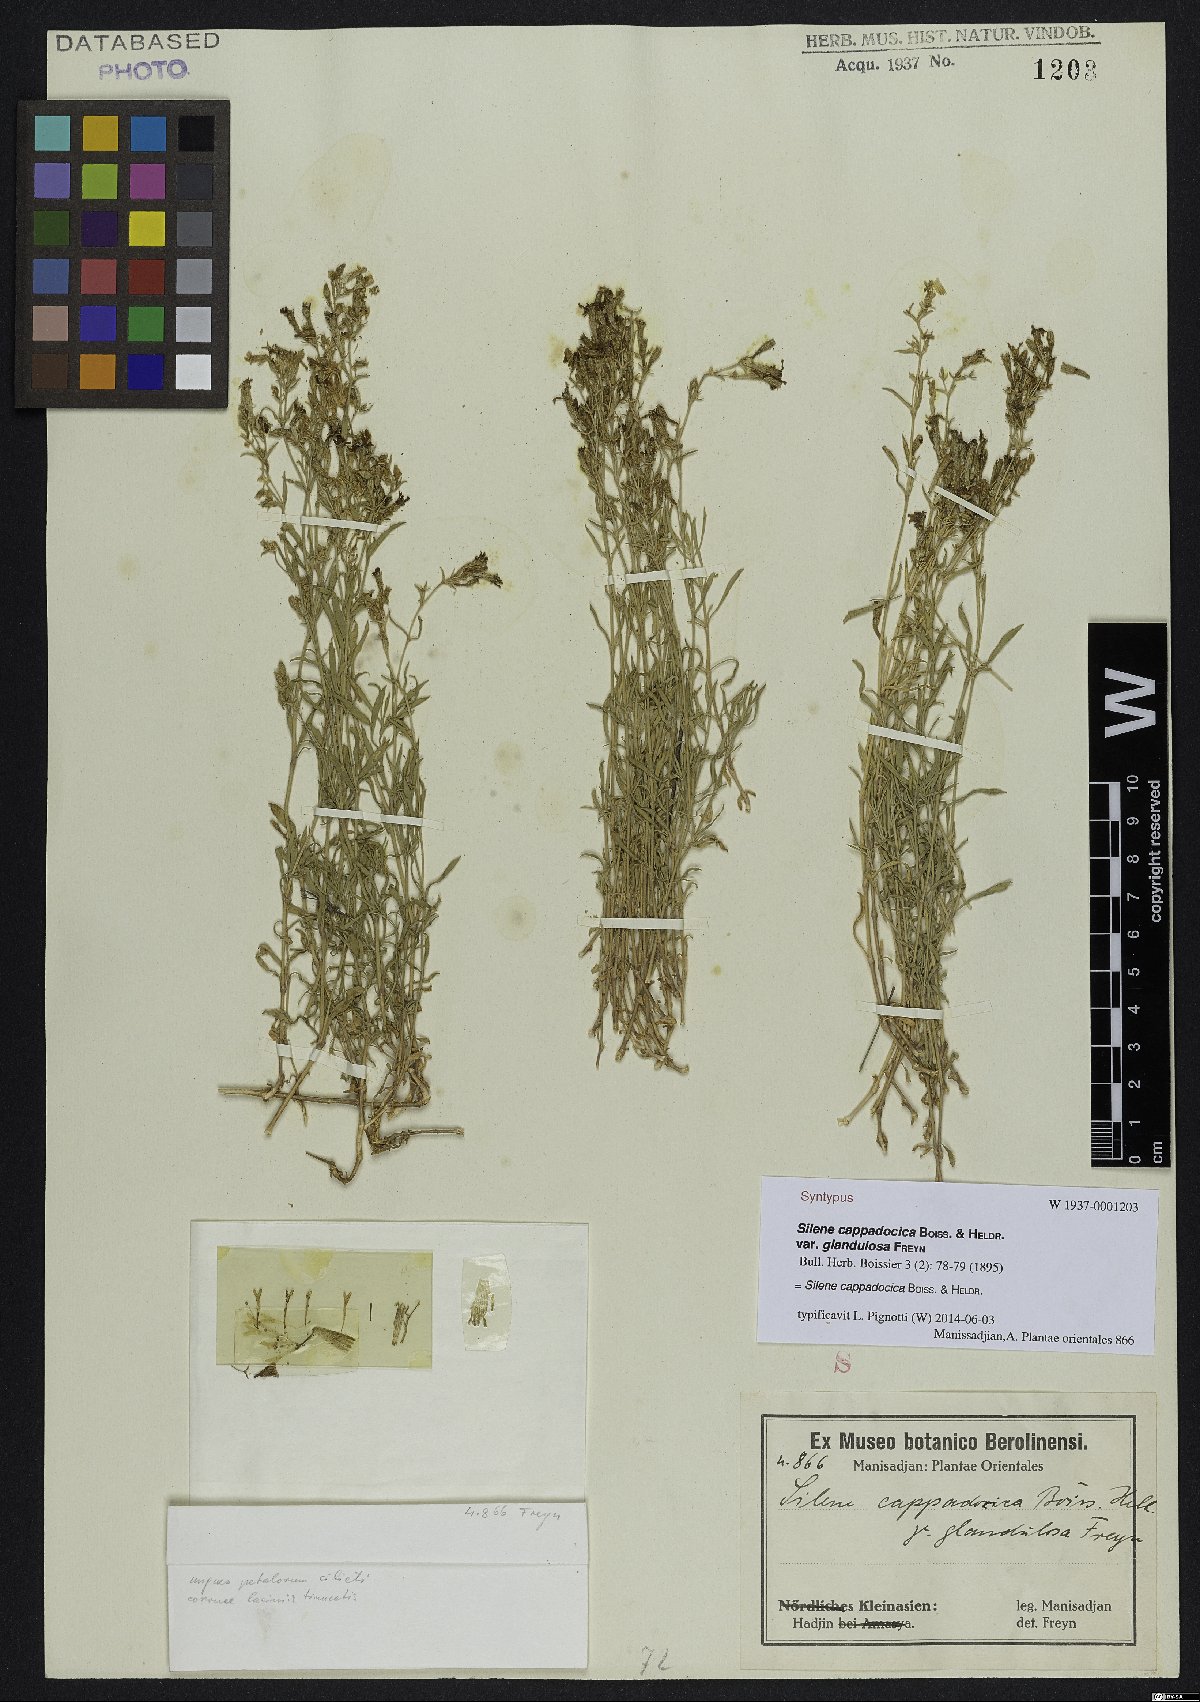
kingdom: Plantae
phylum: Tracheophyta
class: Magnoliopsida
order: Caryophyllales
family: Caryophyllaceae
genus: Silene
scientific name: Silene cappadocica
